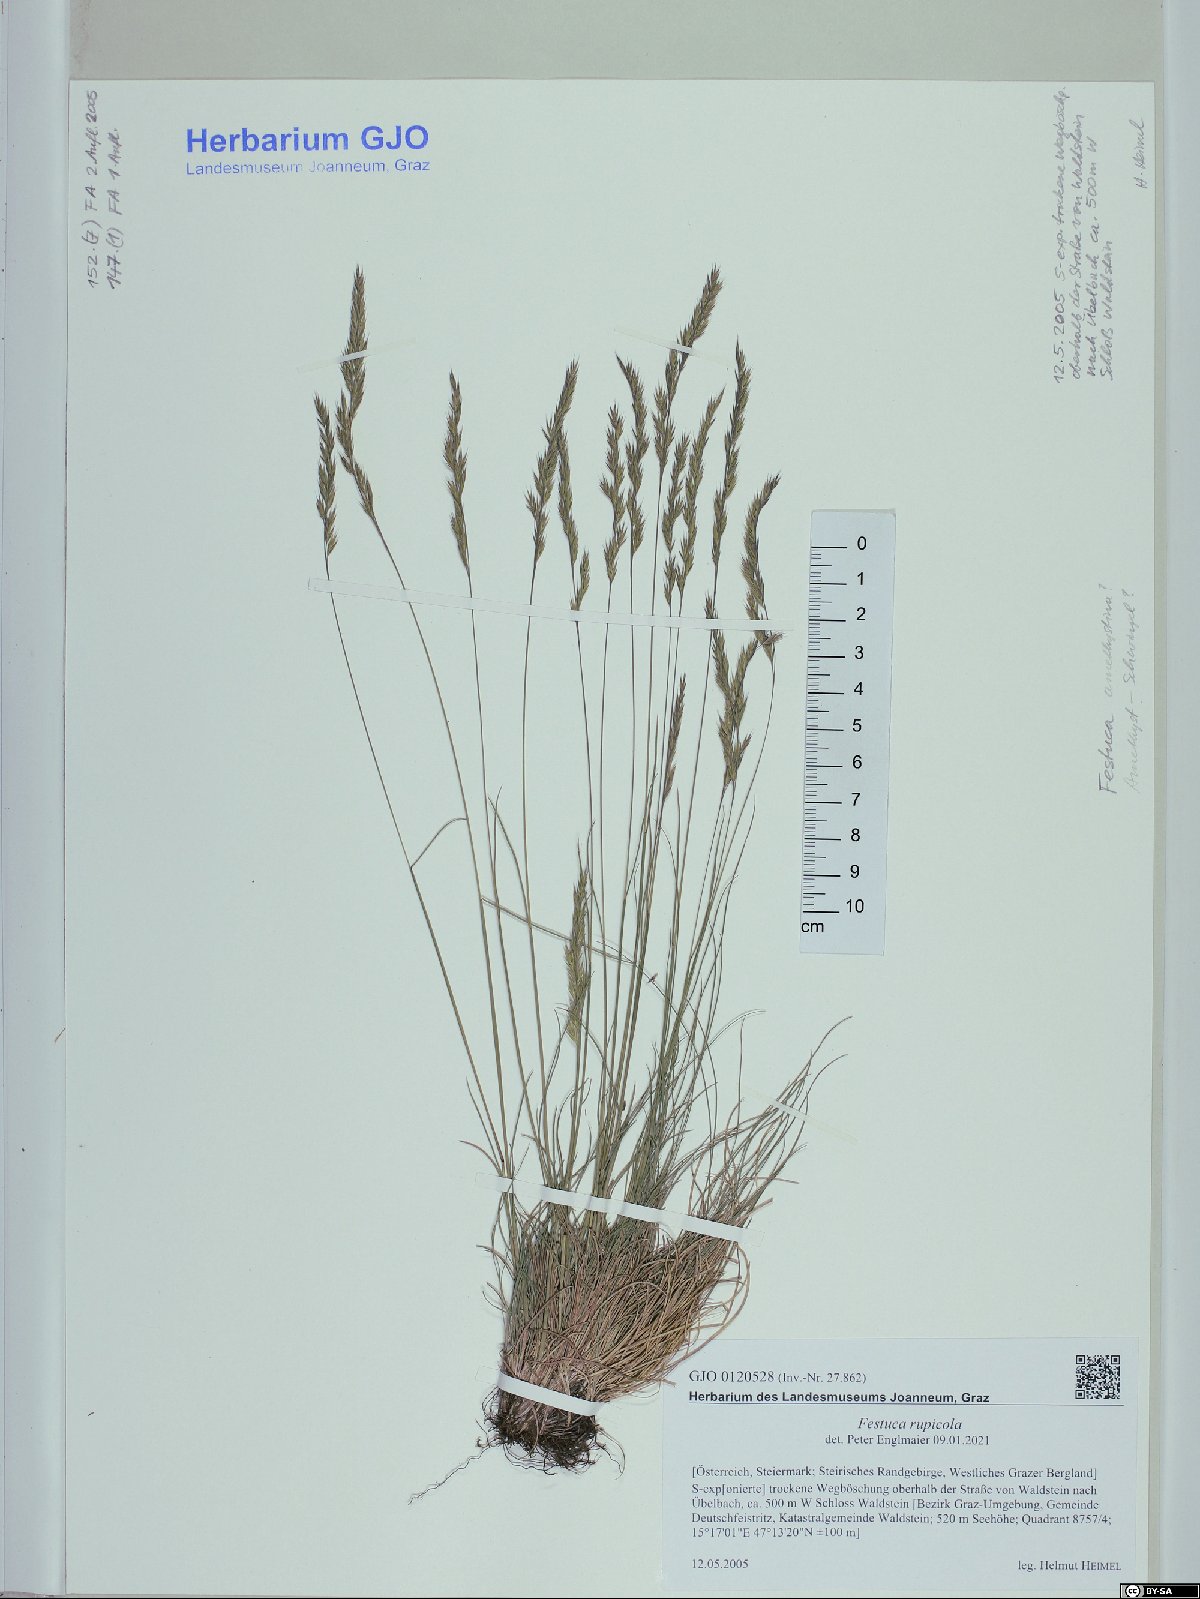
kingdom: Plantae
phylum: Tracheophyta
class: Liliopsida
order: Poales
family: Poaceae
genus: Festuca
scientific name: Festuca rupicola
